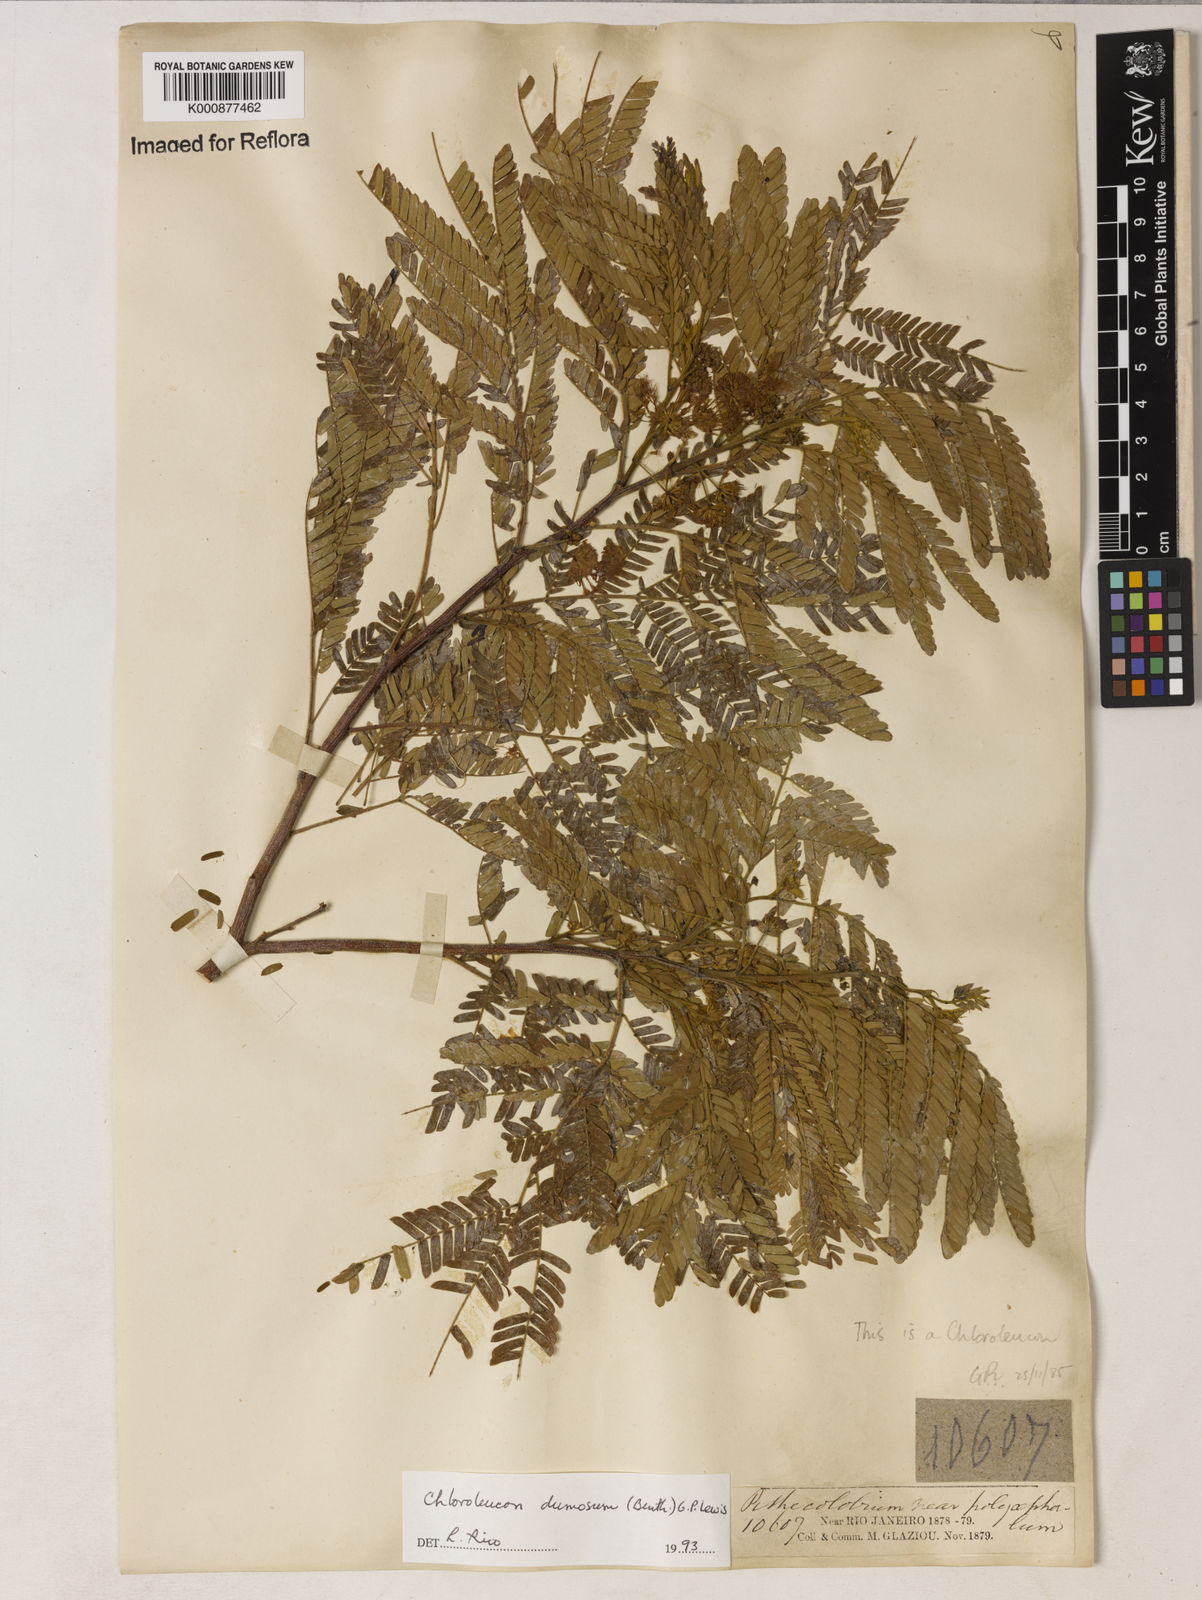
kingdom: Plantae
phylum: Tracheophyta
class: Magnoliopsida
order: Fabales
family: Fabaceae
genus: Chloroleucon
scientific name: Chloroleucon dumosum
